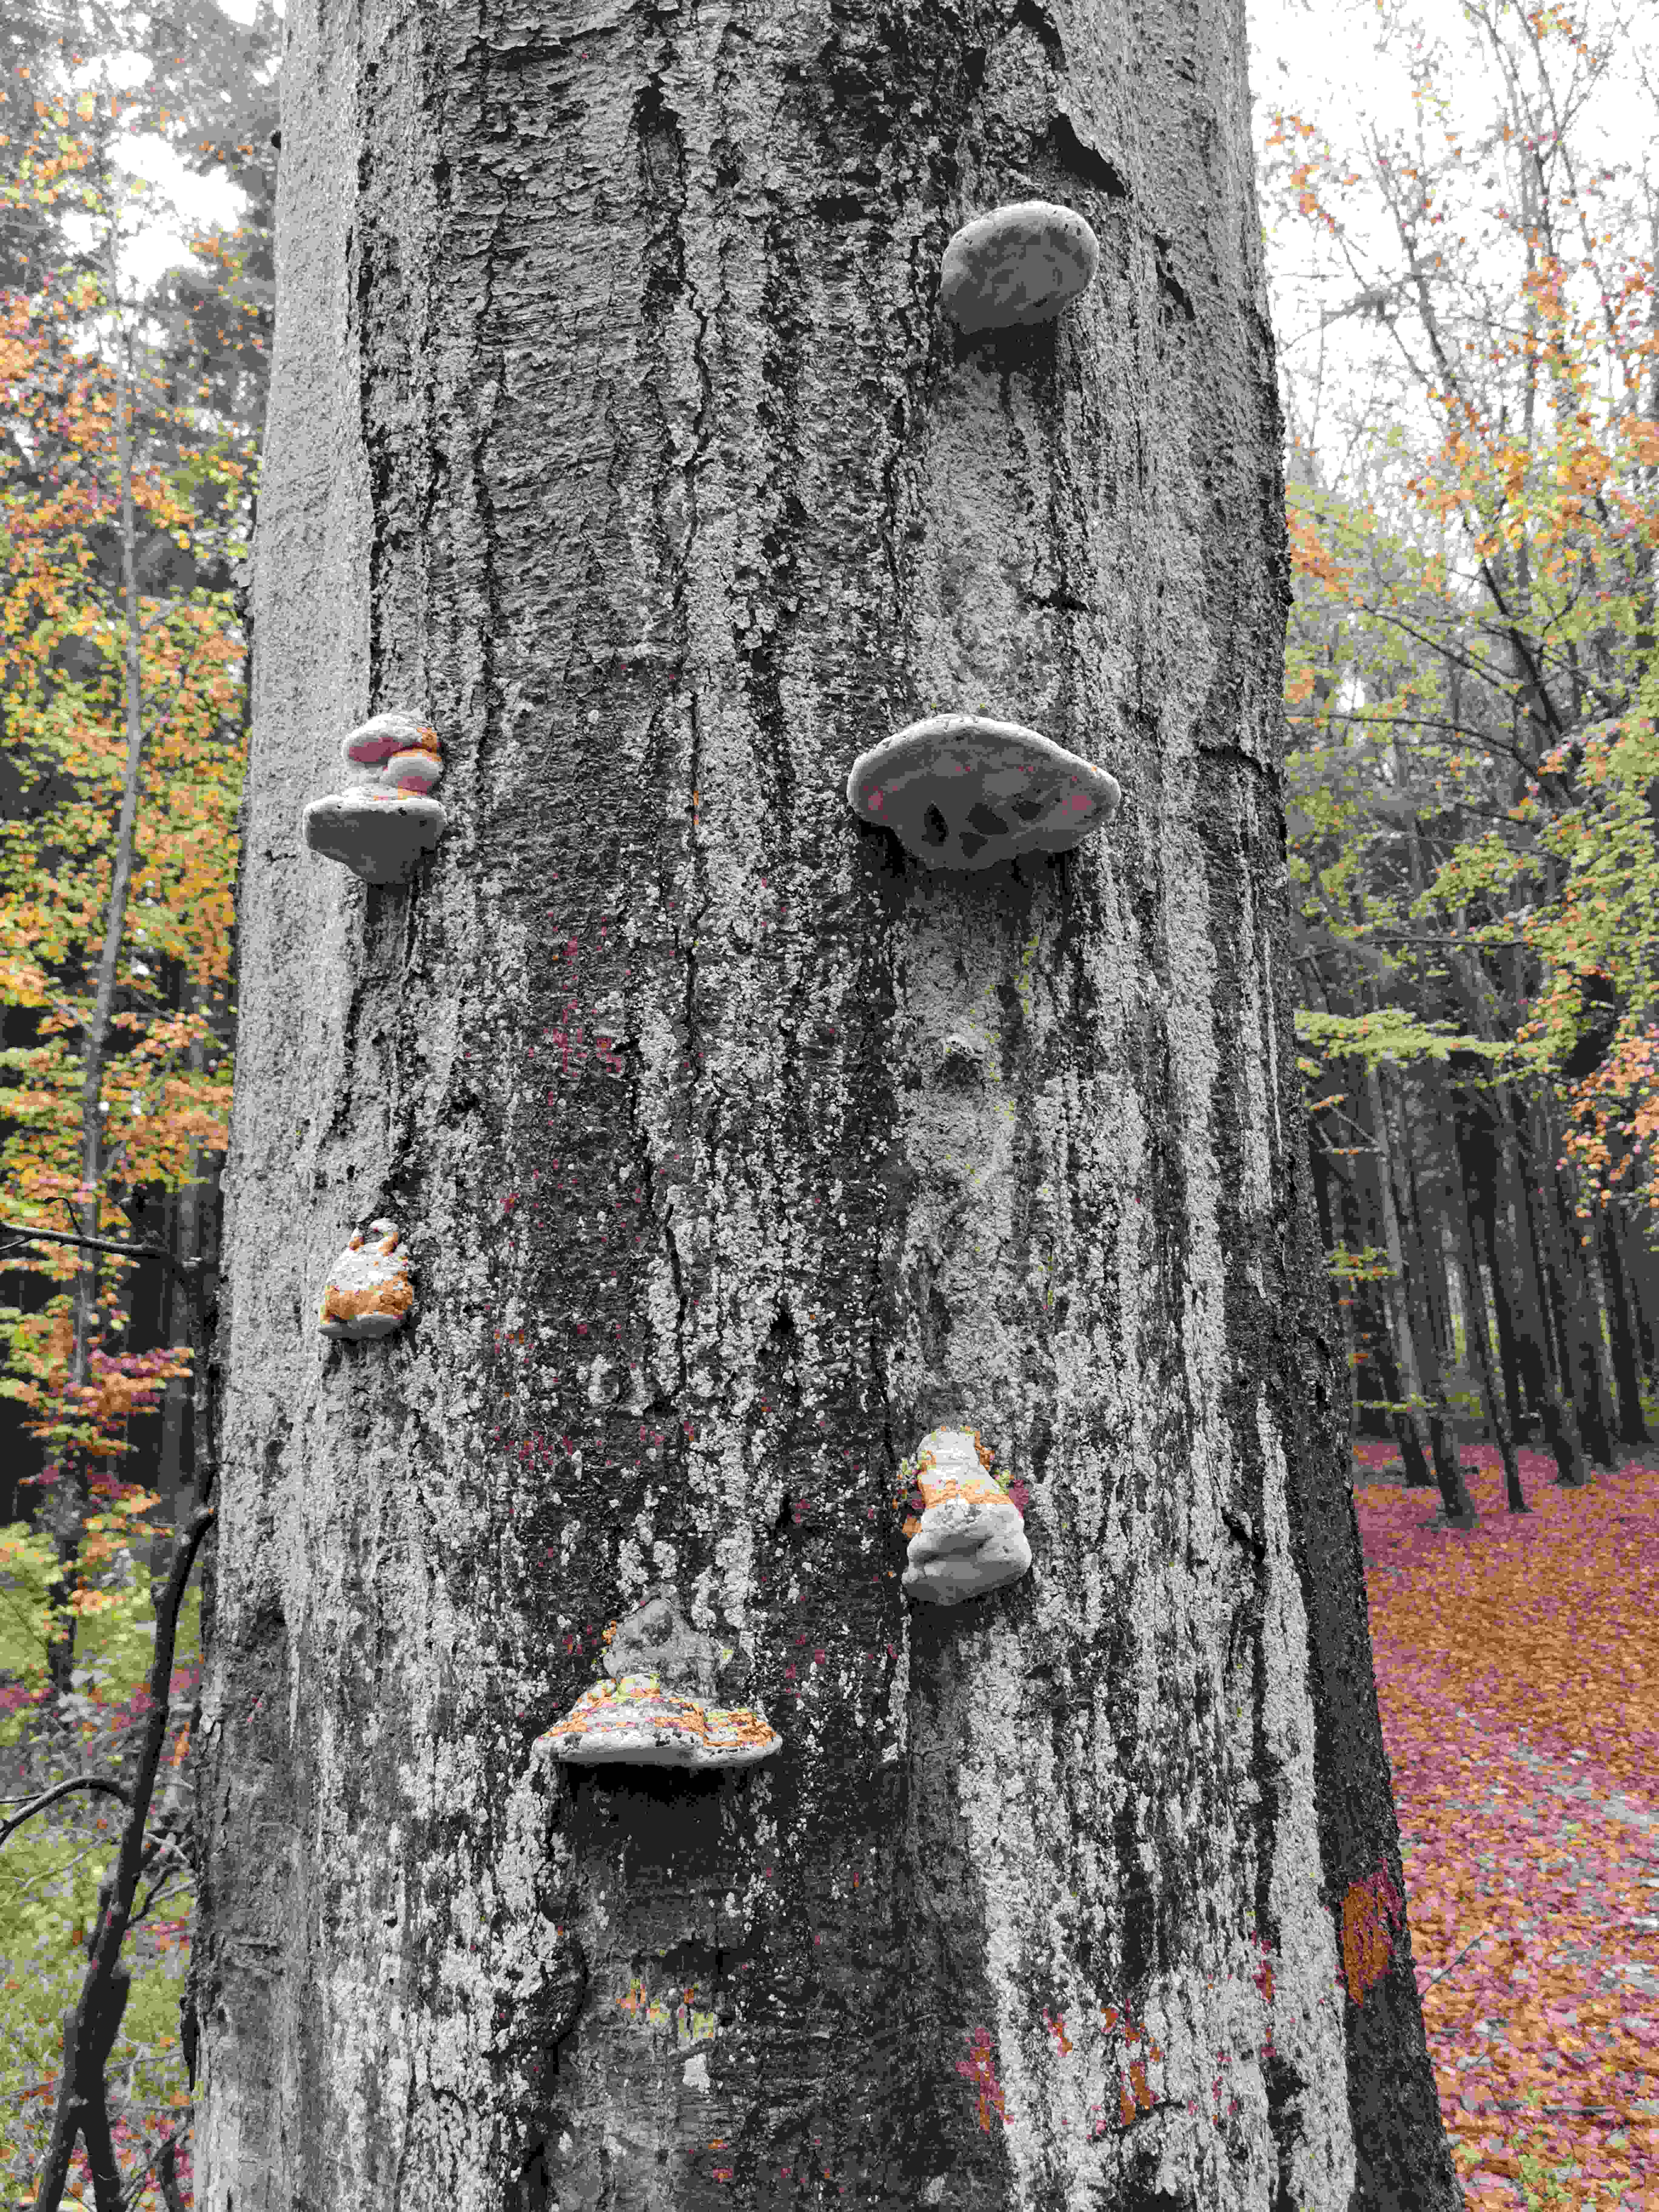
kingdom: Fungi
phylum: Basidiomycota
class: Agaricomycetes
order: Polyporales
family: Polyporaceae
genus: Fomes
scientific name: Fomes fomentarius
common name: tøndersvamp
